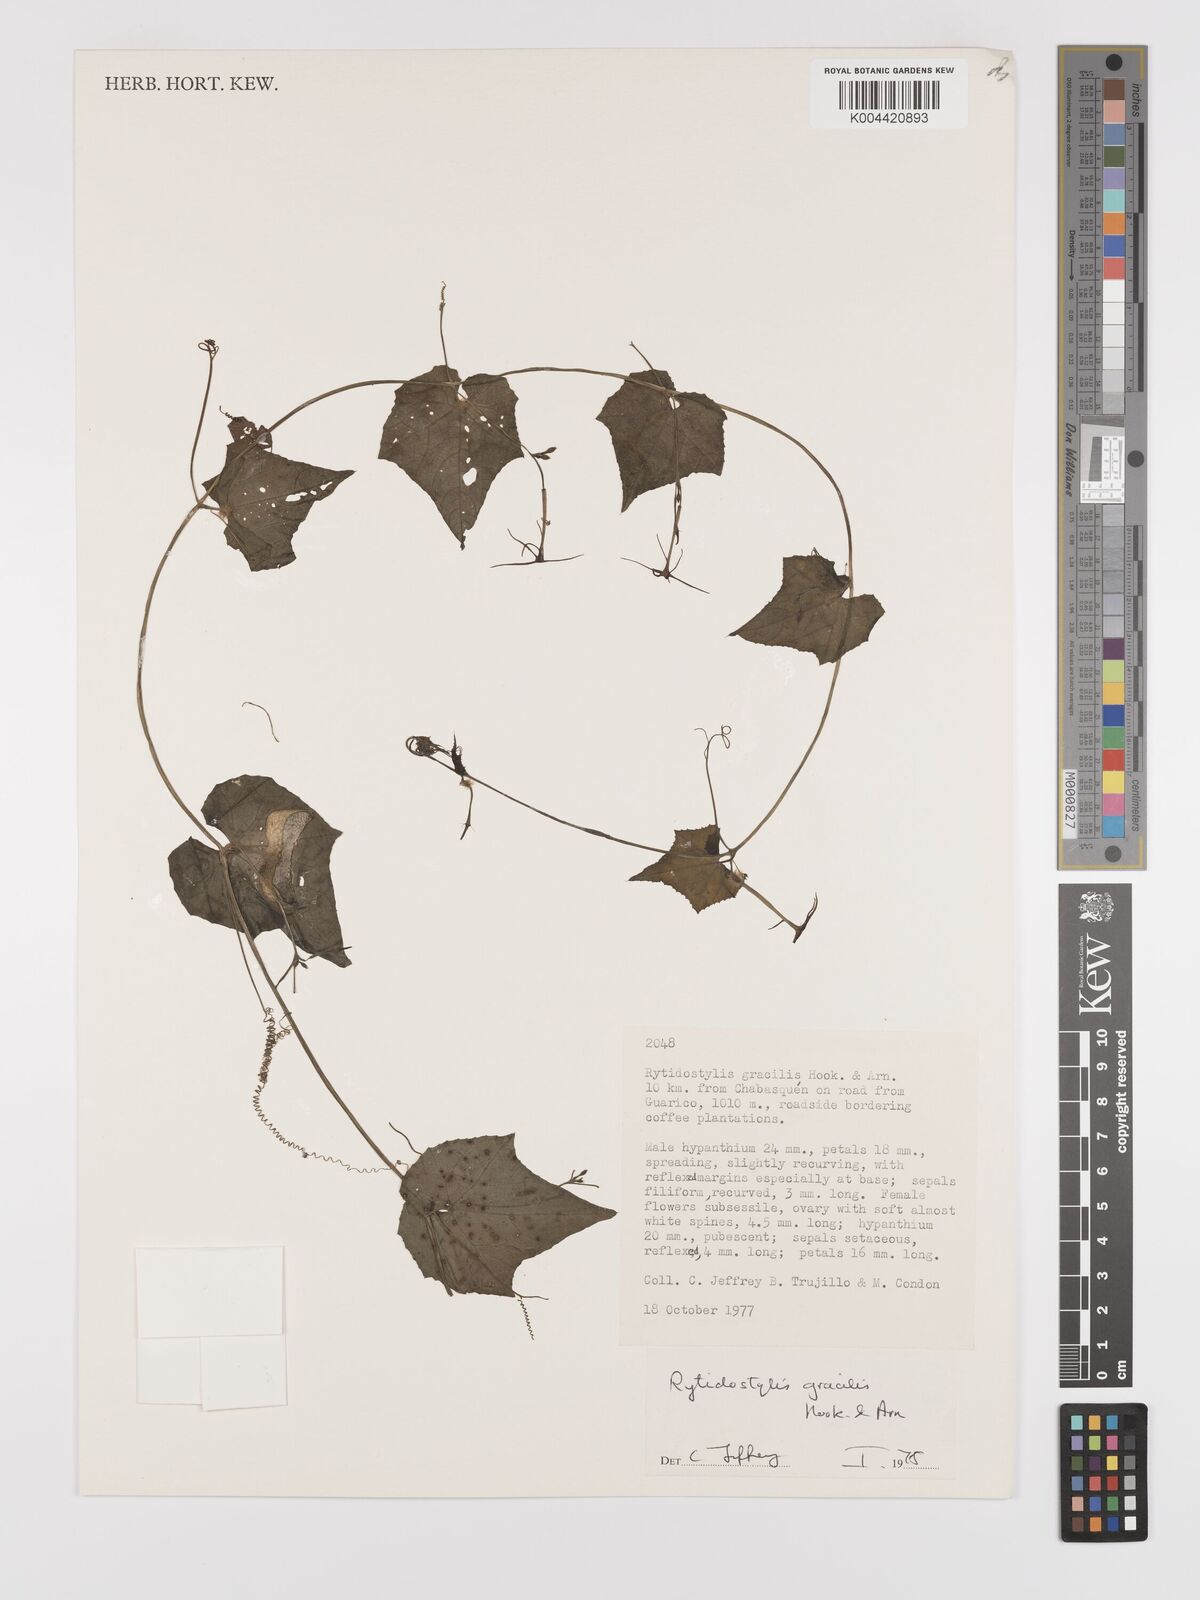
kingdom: Plantae
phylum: Tracheophyta
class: Magnoliopsida
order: Cucurbitales
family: Cucurbitaceae
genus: Cyclanthera
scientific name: Cyclanthera filiformis
